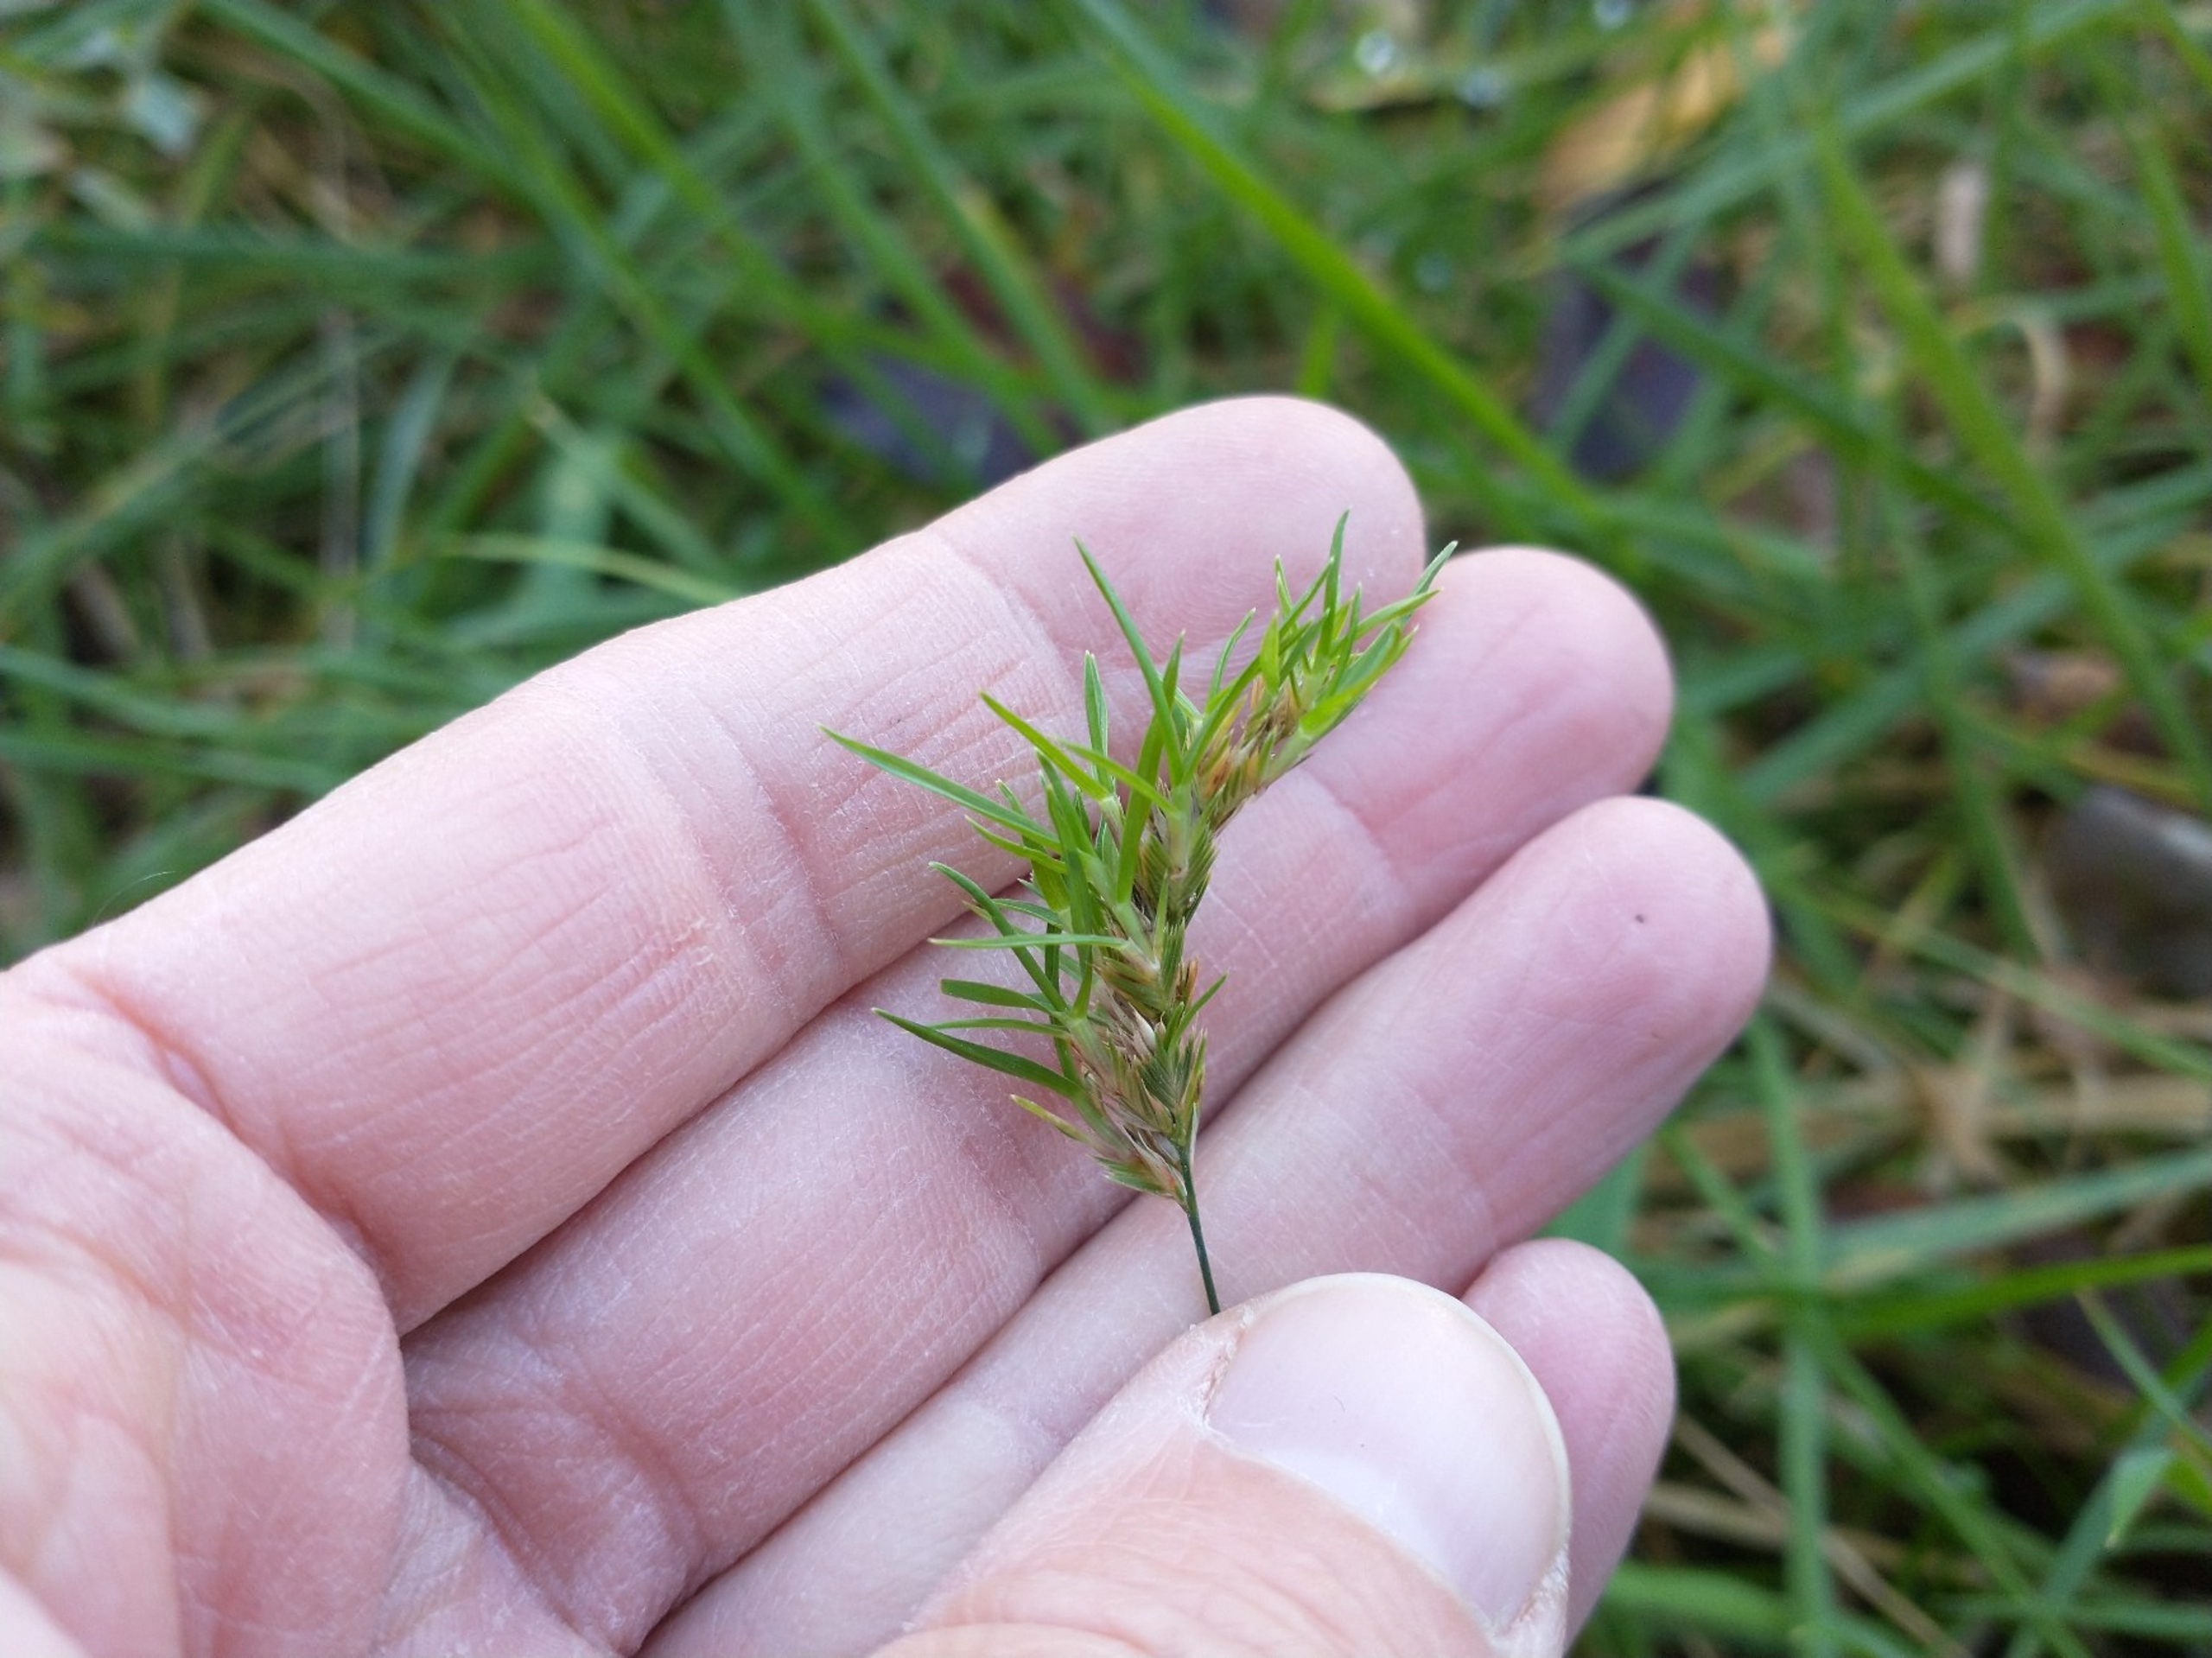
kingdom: Plantae
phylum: Tracheophyta
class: Liliopsida
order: Poales
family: Poaceae
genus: Cynosurus
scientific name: Cynosurus cristatus
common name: Kamgræs
